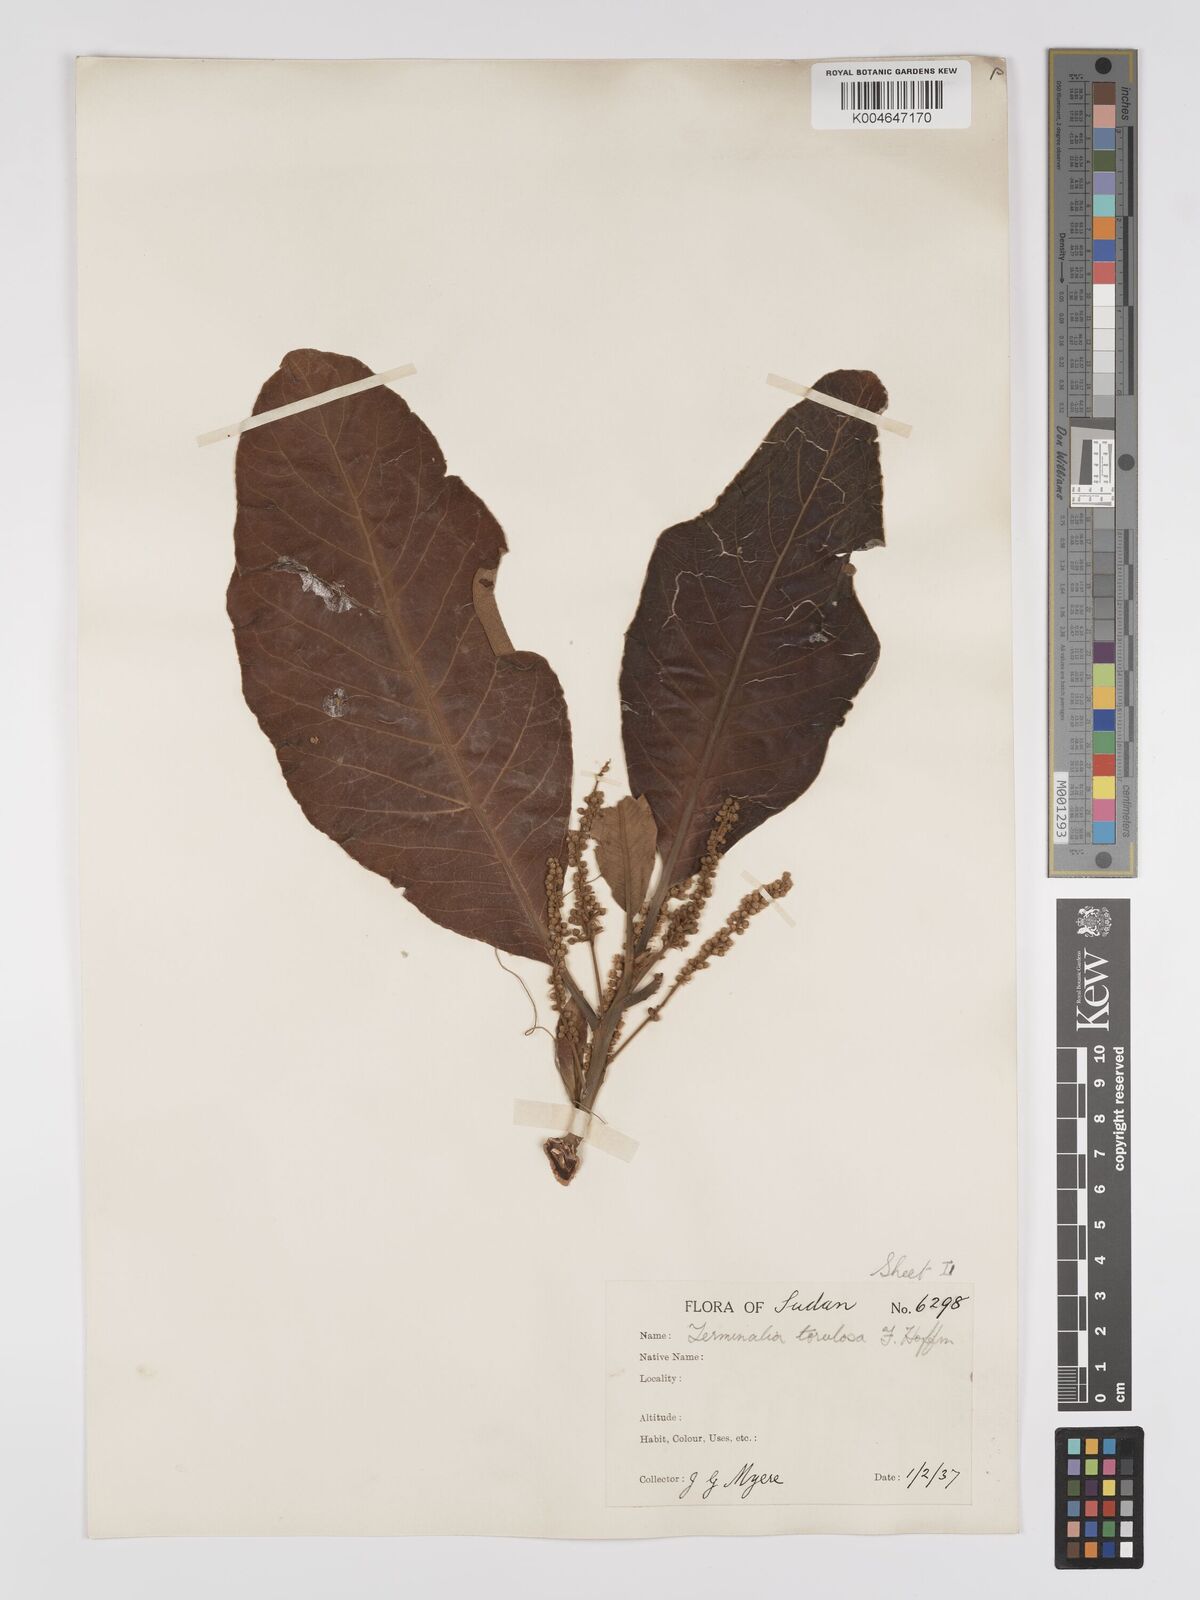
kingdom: Plantae
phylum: Tracheophyta
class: Magnoliopsida
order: Myrtales
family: Combretaceae
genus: Terminalia
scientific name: Terminalia mollis
